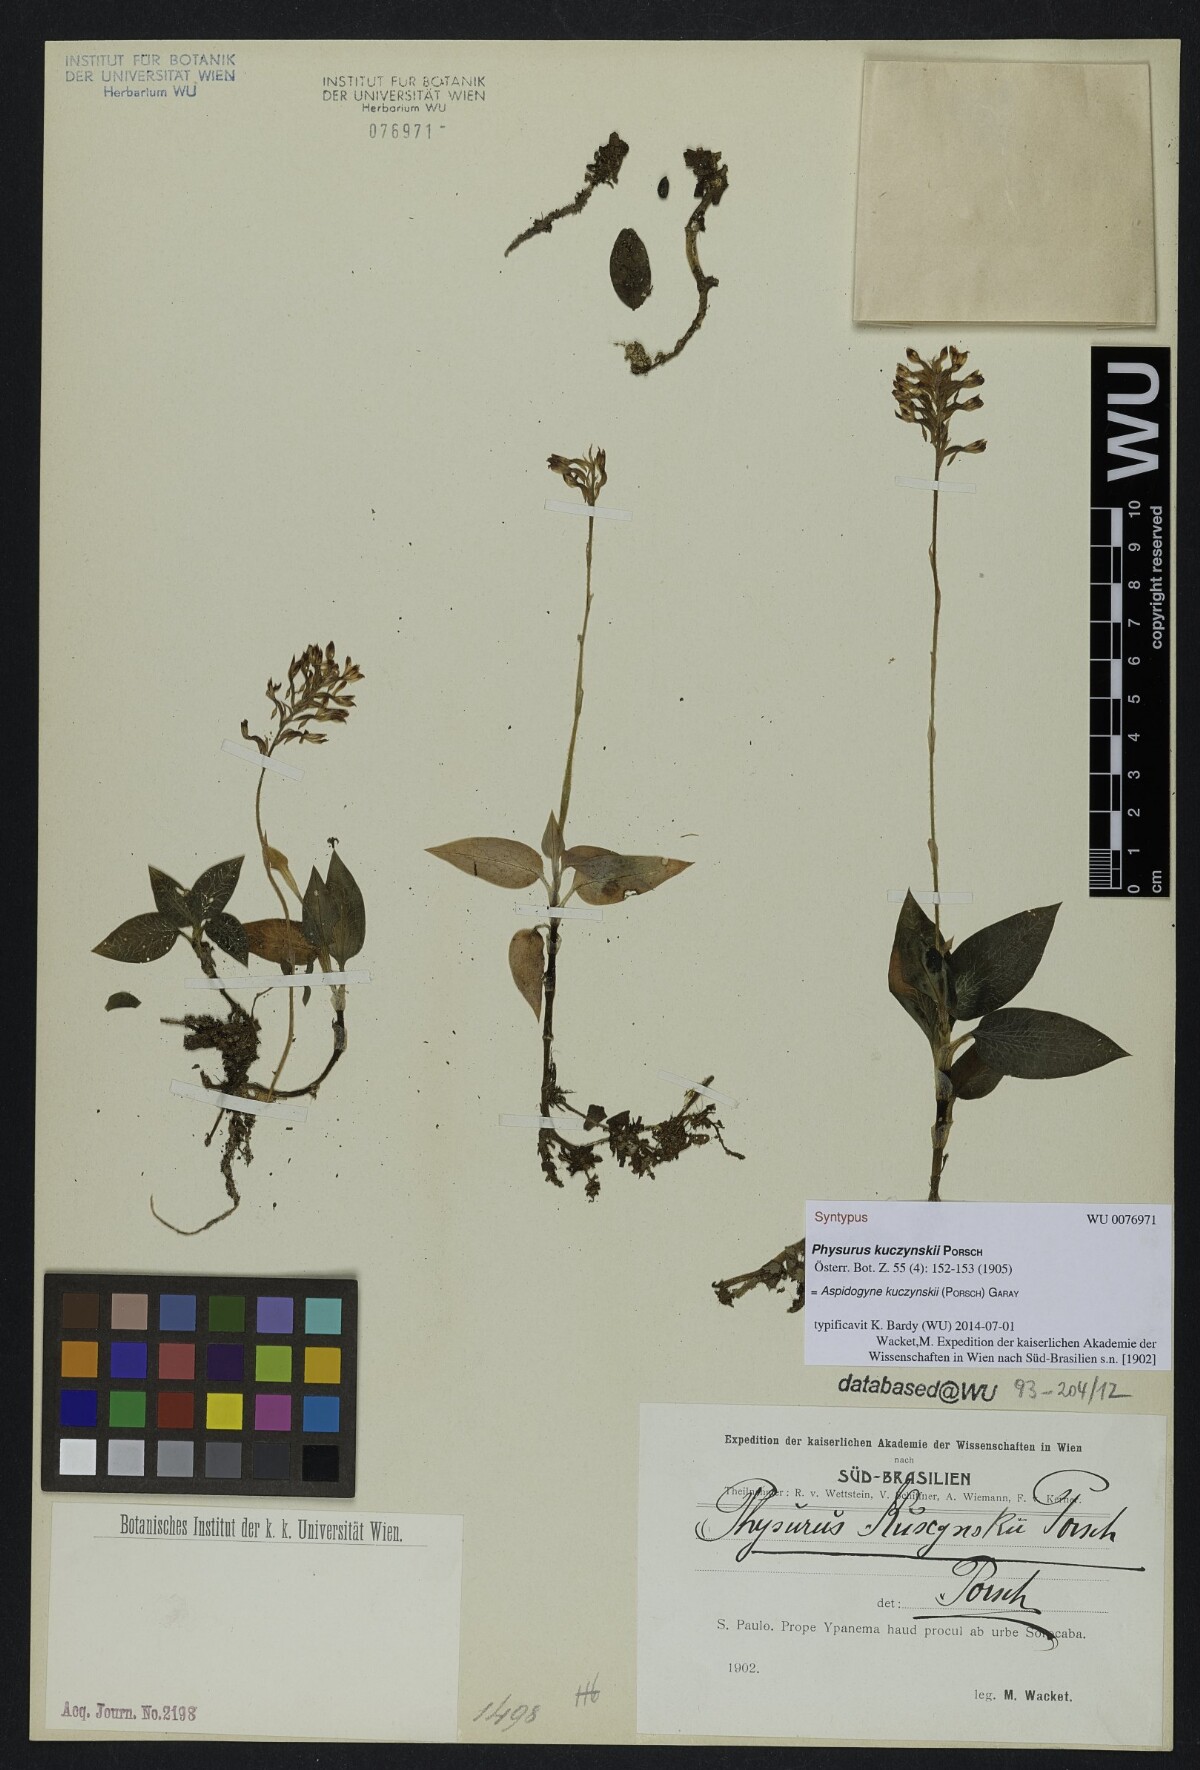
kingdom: Plantae
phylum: Tracheophyta
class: Liliopsida
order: Asparagales
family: Orchidaceae
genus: Aspidogyne
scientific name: Aspidogyne kuczynskii
